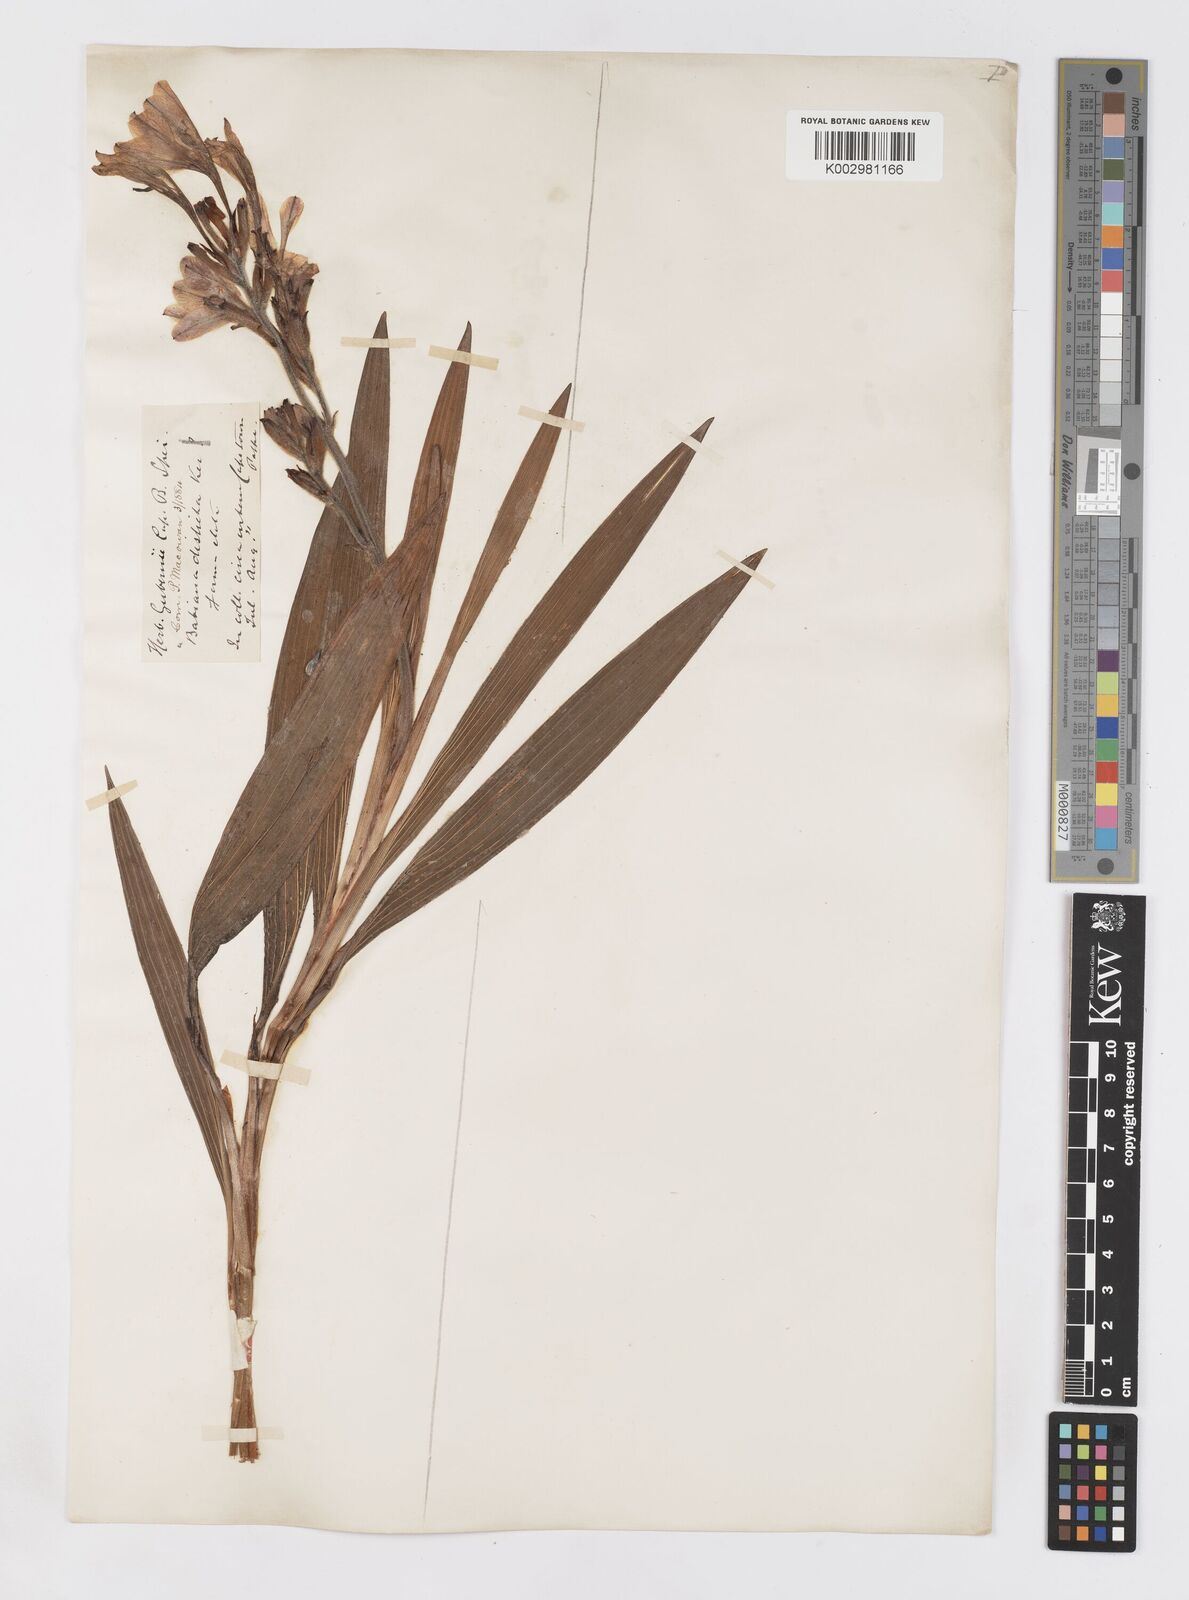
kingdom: Plantae
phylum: Tracheophyta
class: Liliopsida
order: Asparagales
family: Iridaceae
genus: Babiana
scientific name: Babiana
